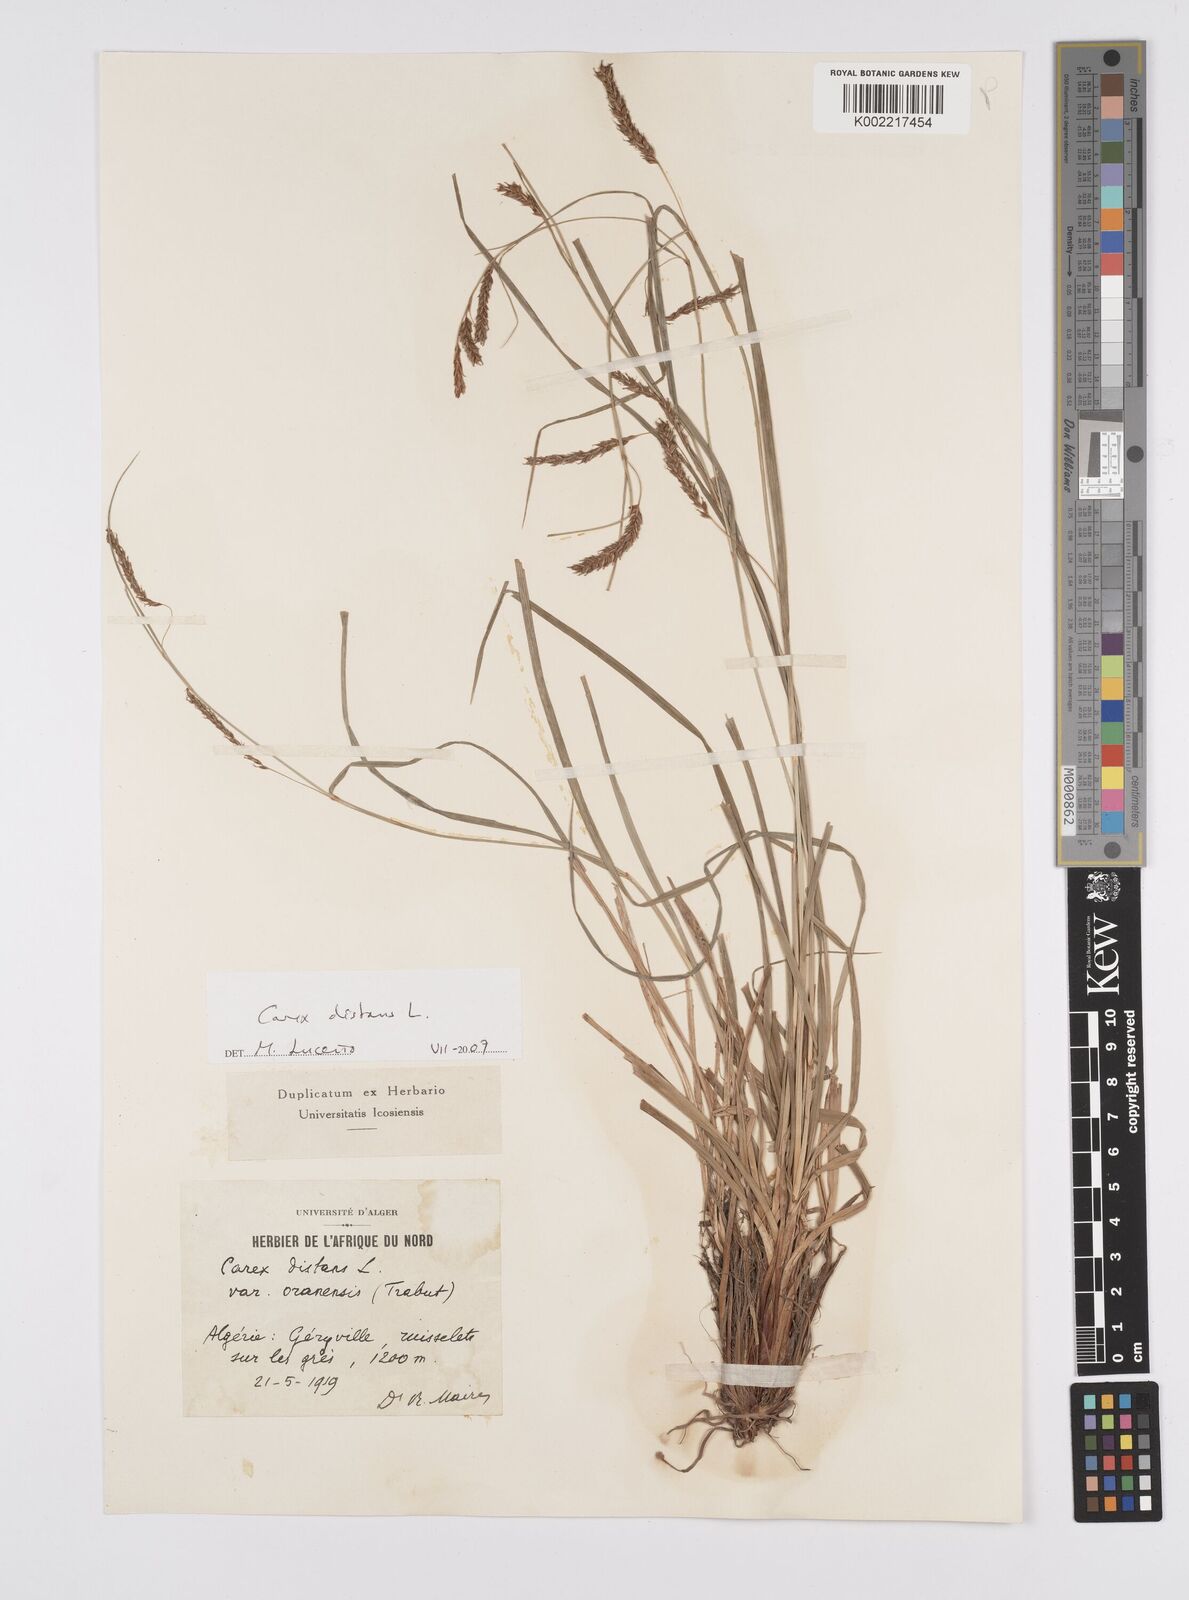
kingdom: Plantae
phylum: Tracheophyta
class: Liliopsida
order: Poales
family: Cyperaceae
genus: Carex
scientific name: Carex distans
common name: Distant sedge
